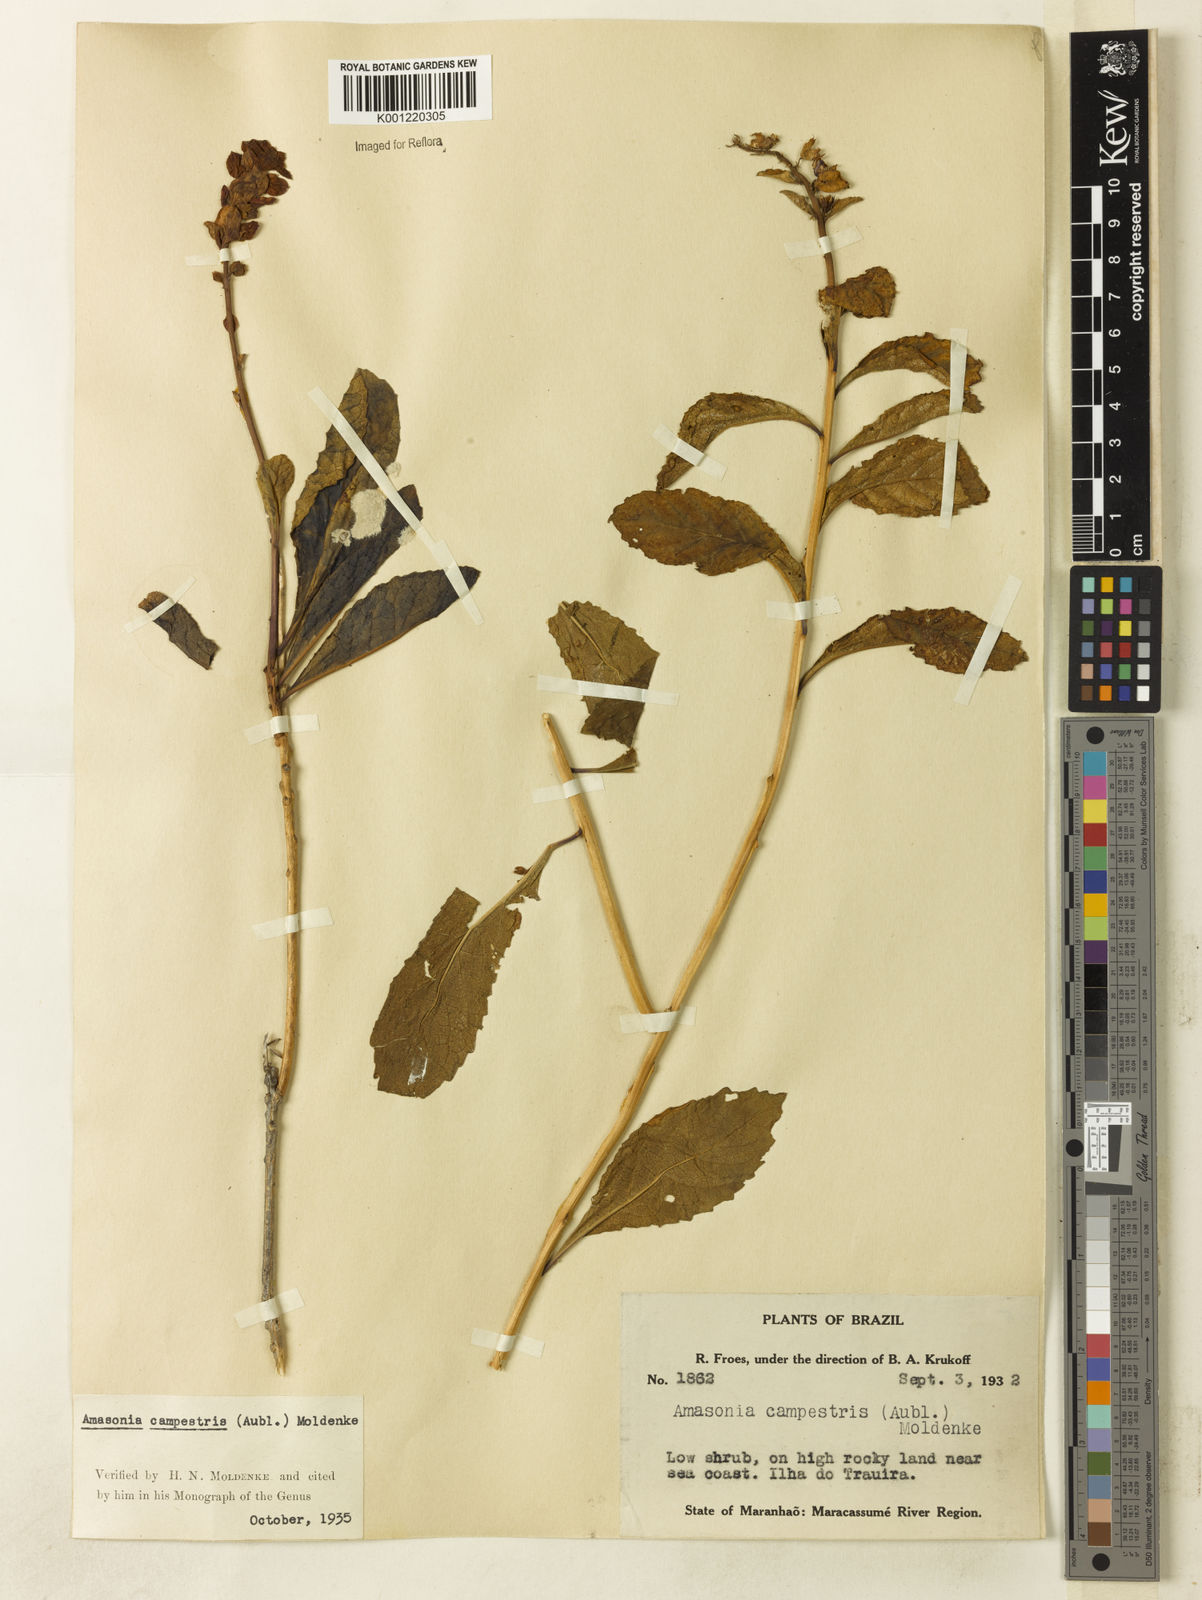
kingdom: Plantae
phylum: Tracheophyta
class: Magnoliopsida
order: Lamiales
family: Lamiaceae
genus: Amasonia
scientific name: Amasonia campestris
